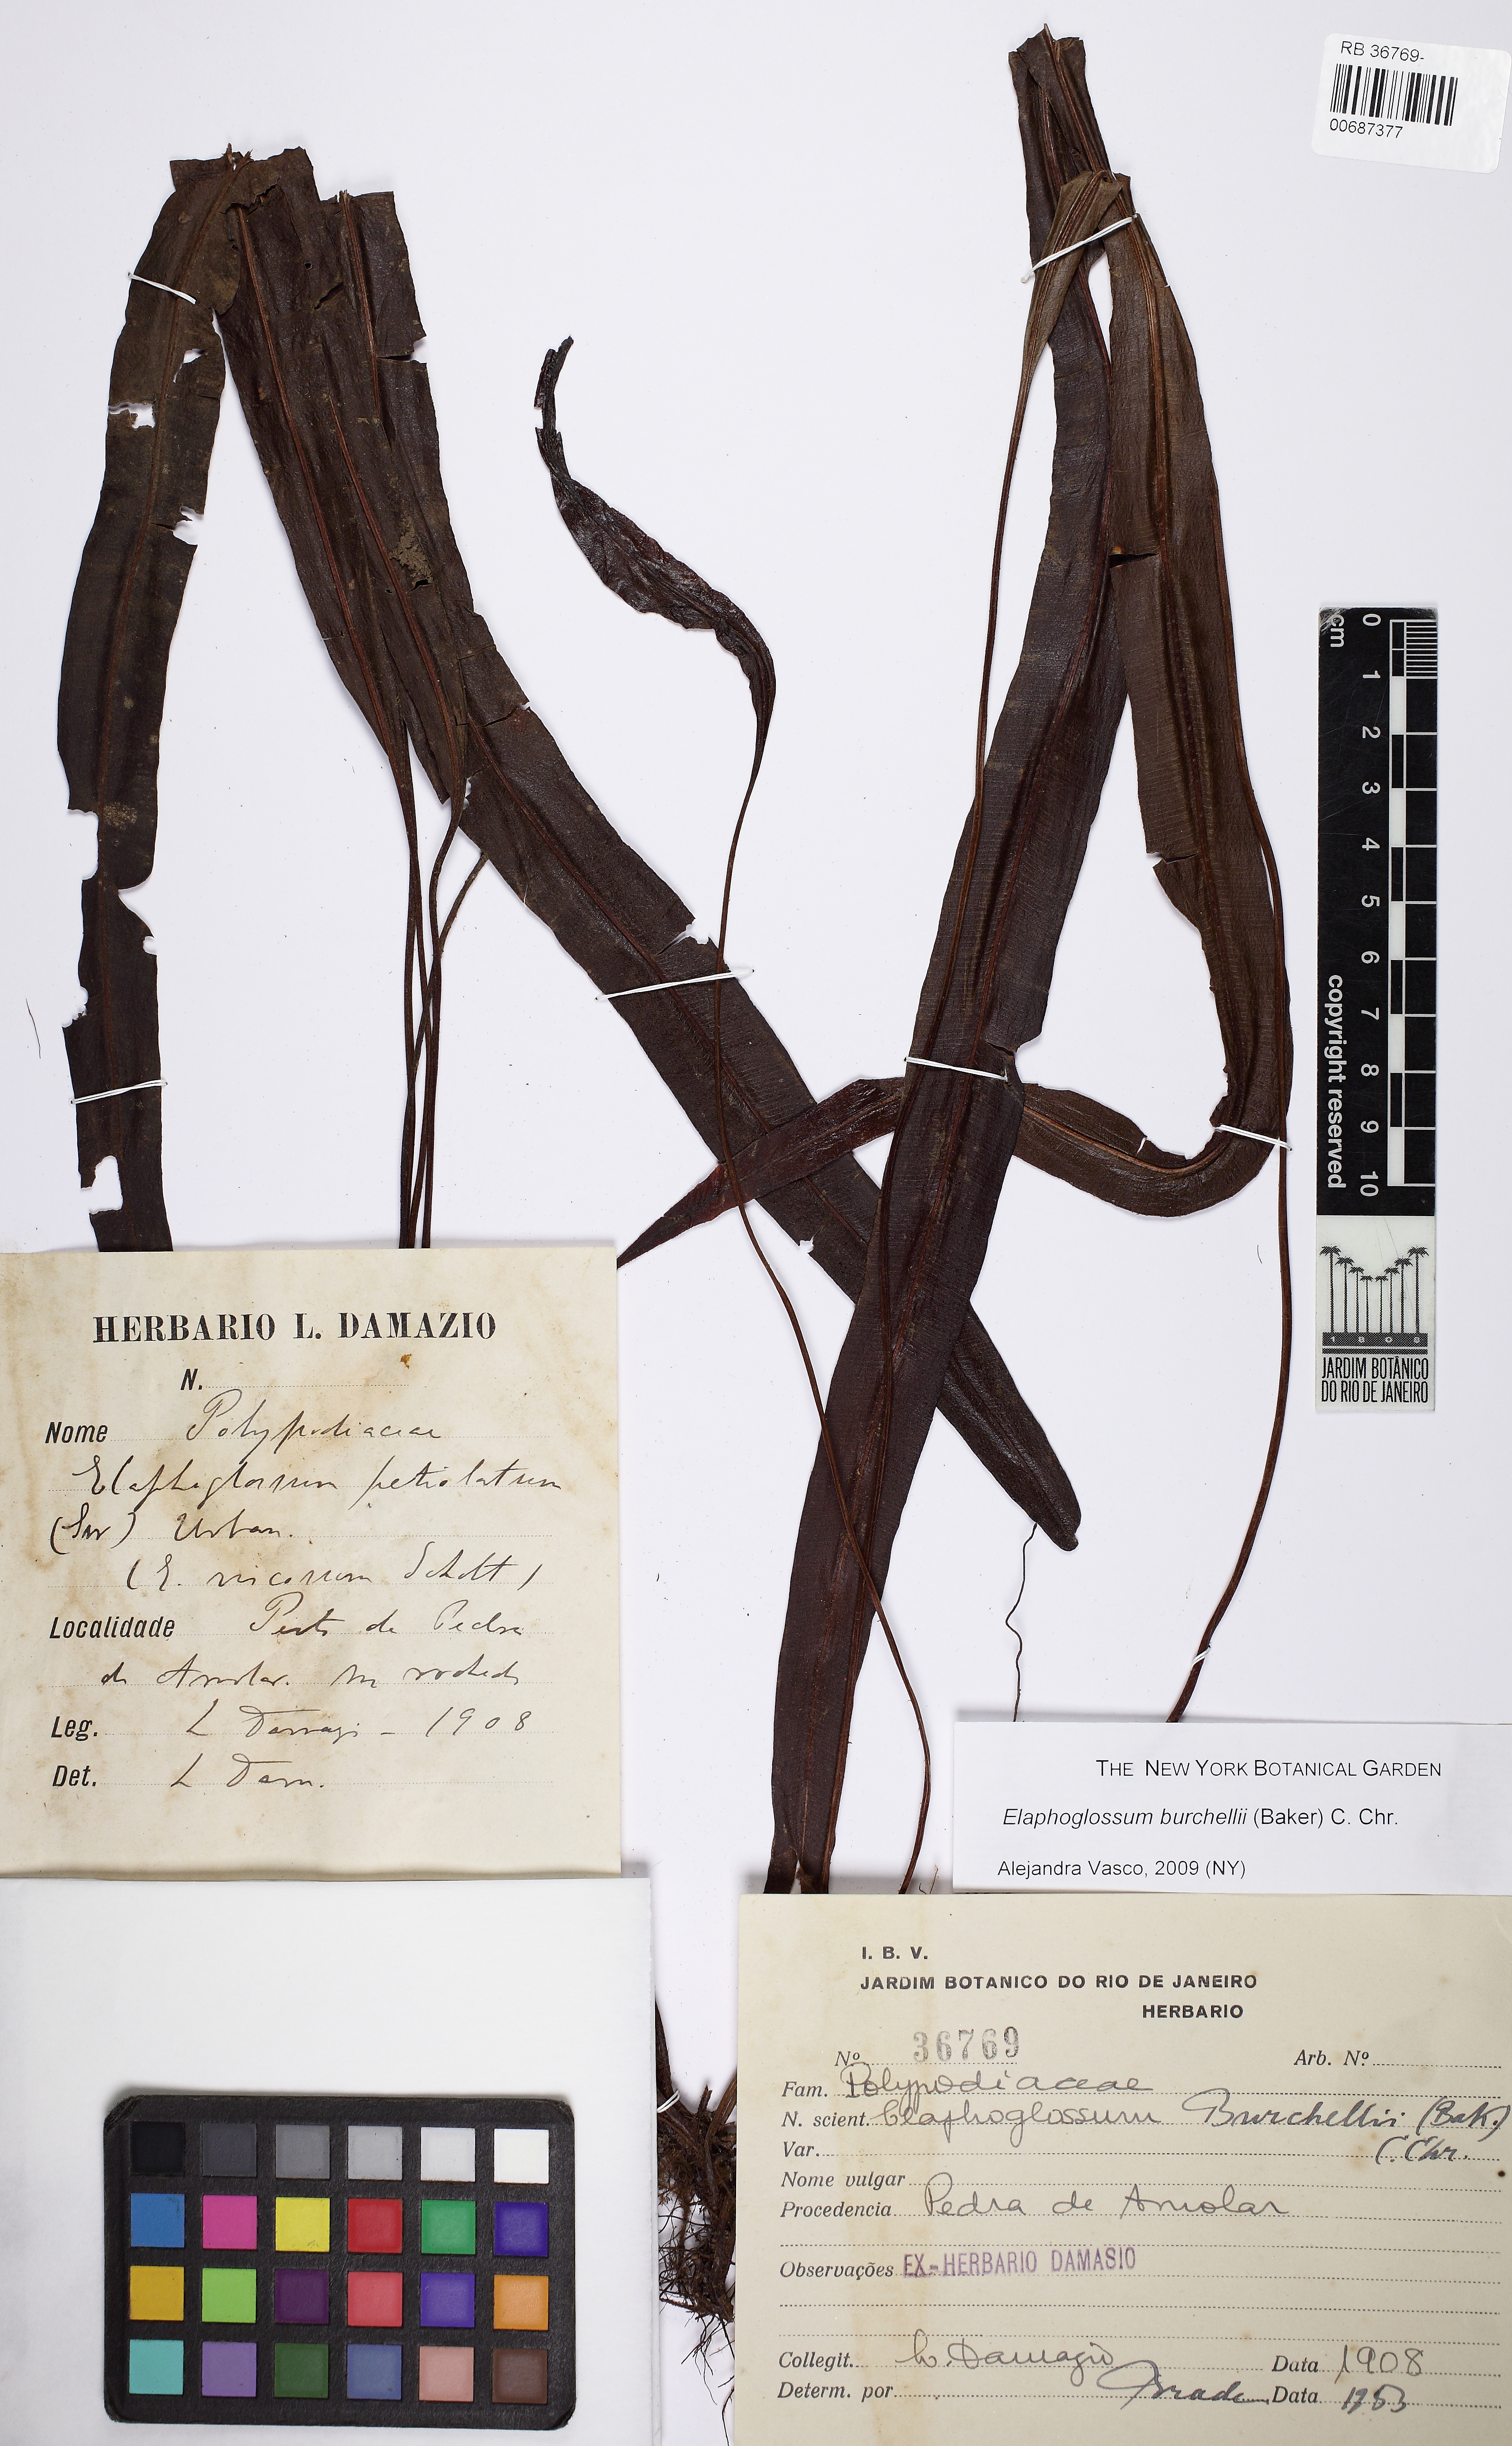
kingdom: Plantae
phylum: Tracheophyta
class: Polypodiopsida
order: Polypodiales
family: Dryopteridaceae
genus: Elaphoglossum
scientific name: Elaphoglossum burchellii
